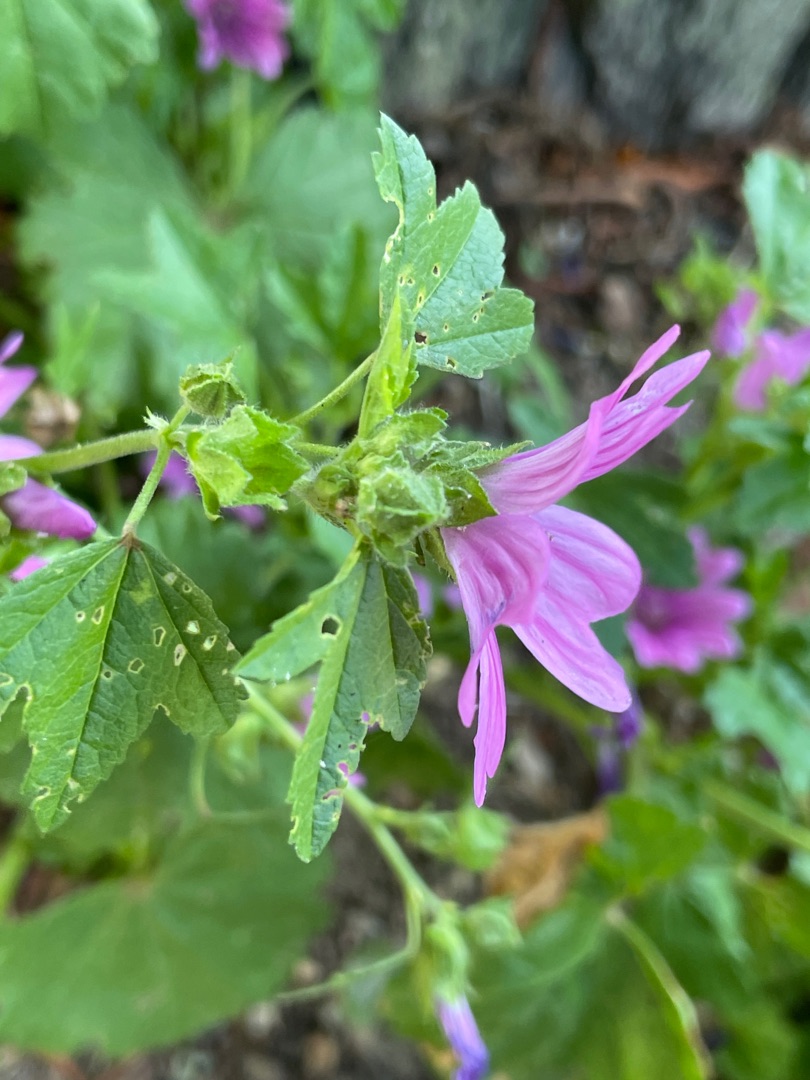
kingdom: Plantae
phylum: Tracheophyta
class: Magnoliopsida
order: Malvales
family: Malvaceae
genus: Malva
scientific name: Malva sylvestris
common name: Almindelig katost
